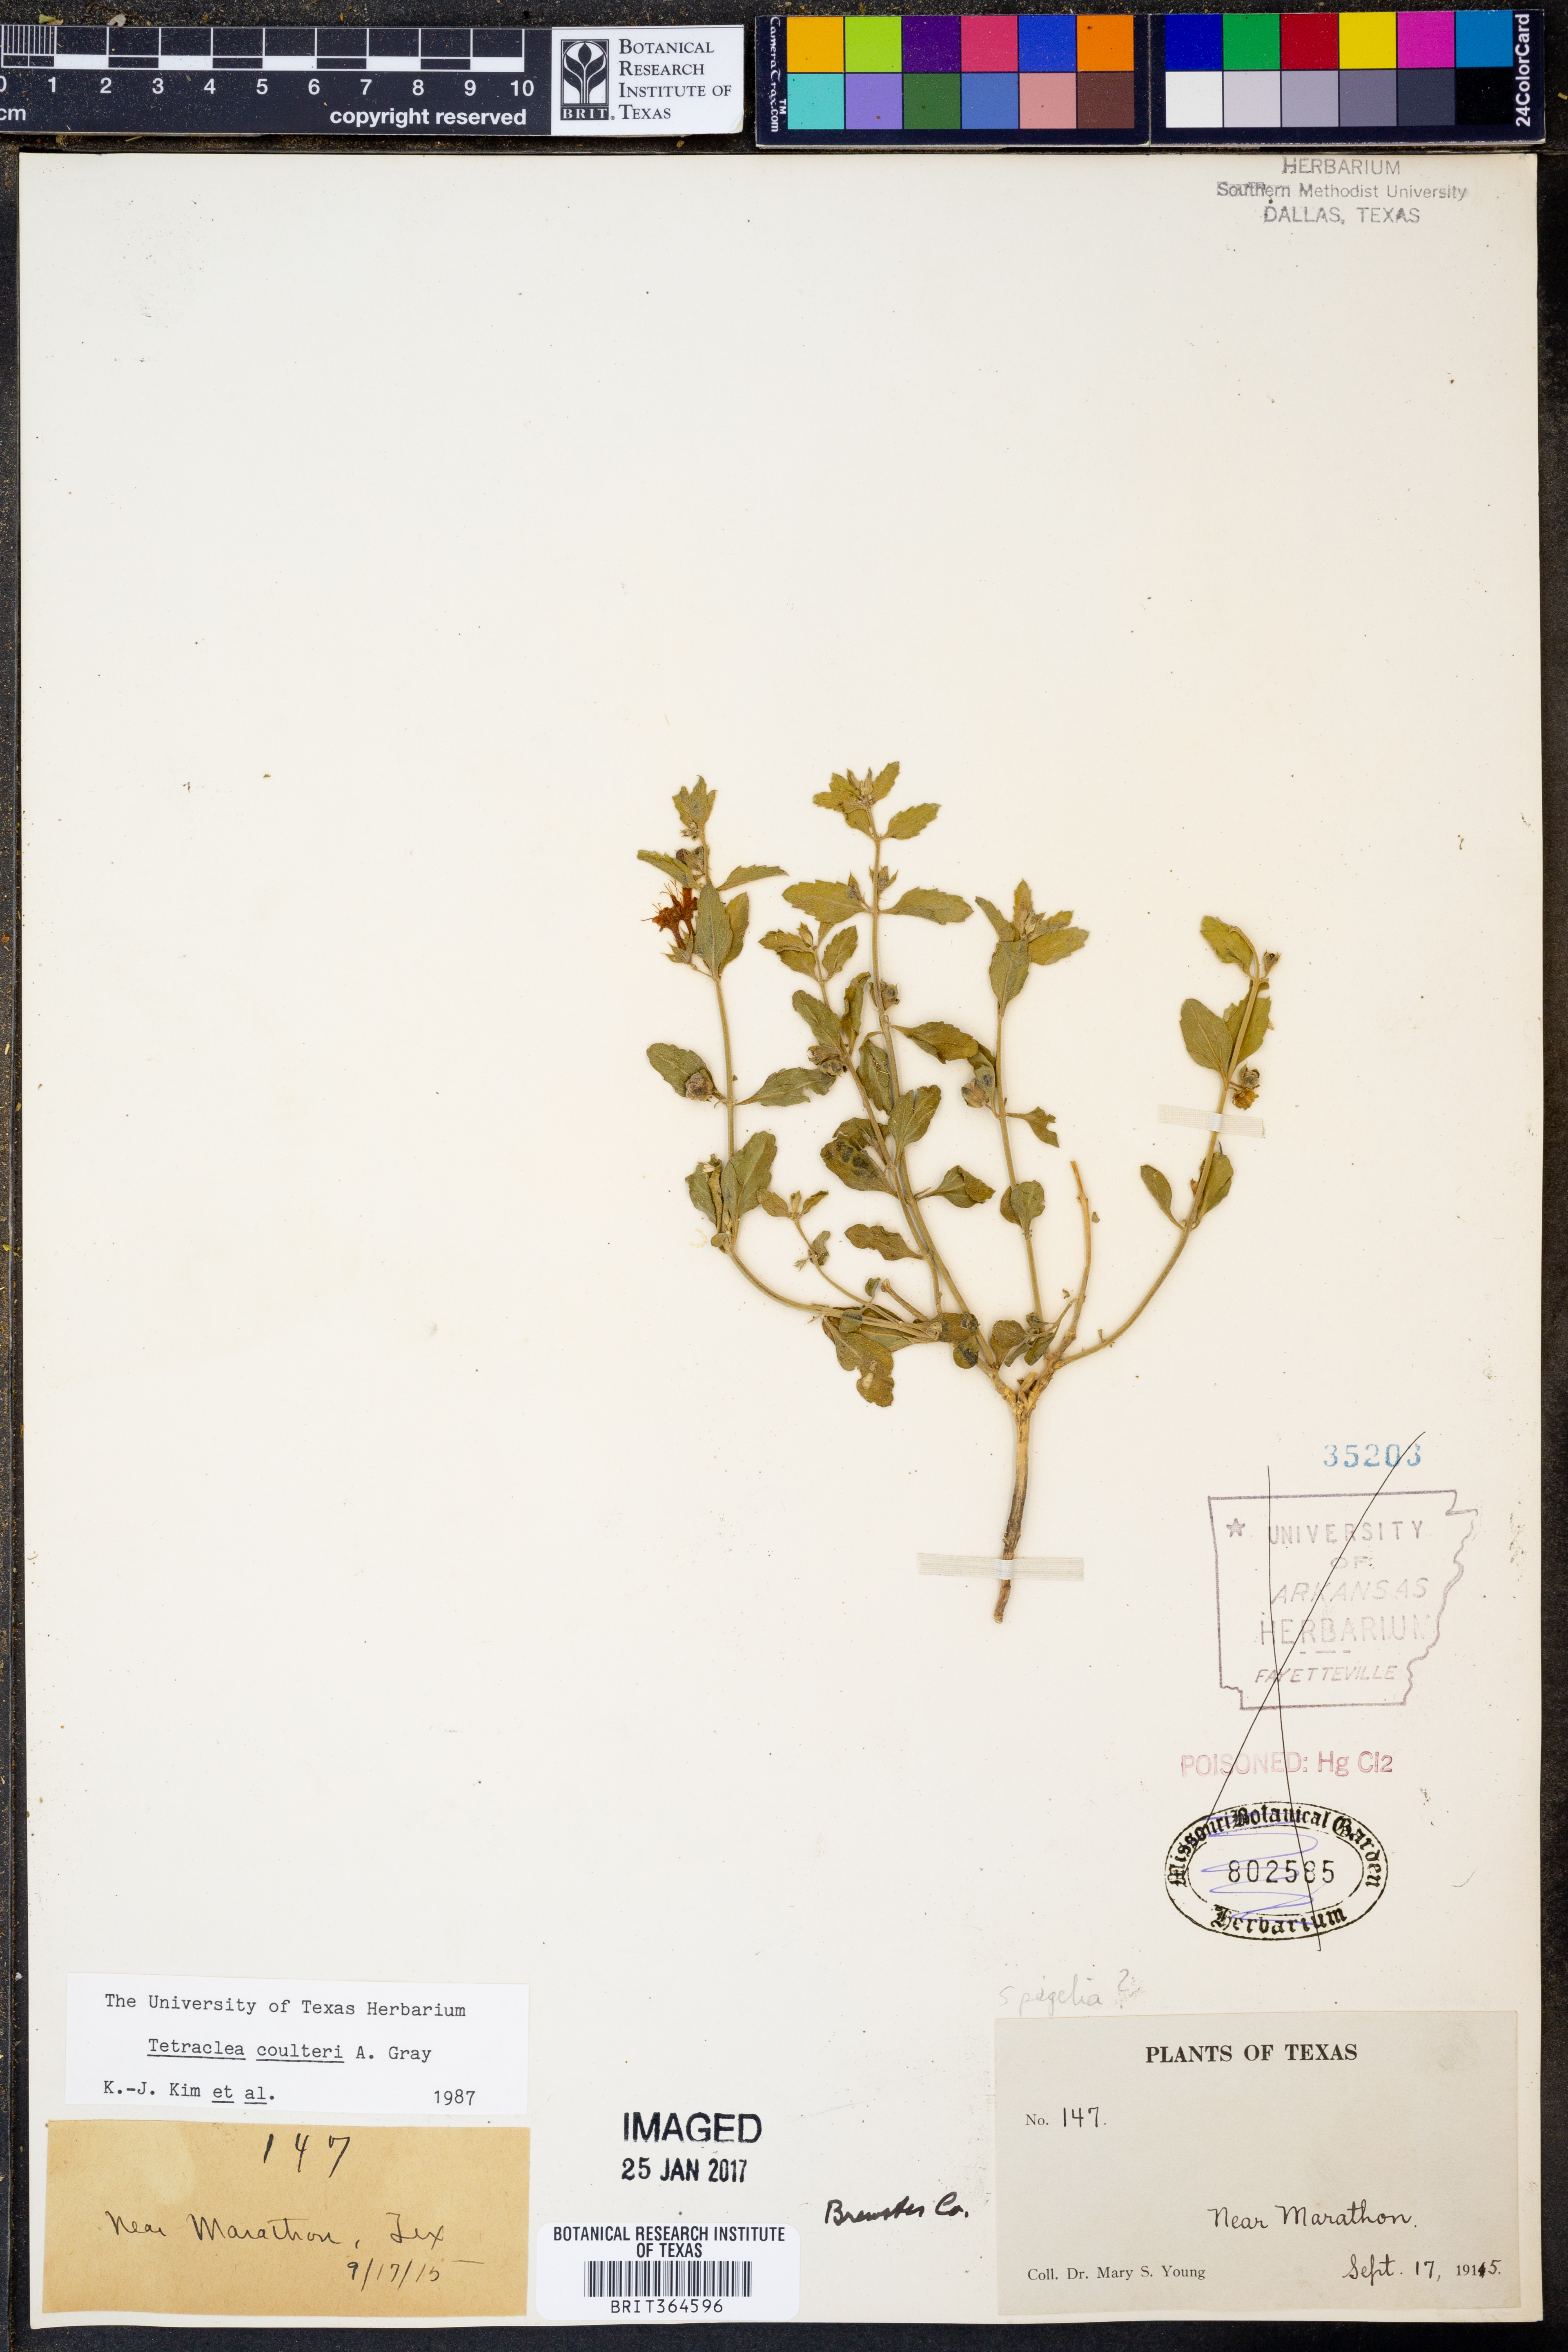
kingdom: Plantae
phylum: Tracheophyta
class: Magnoliopsida
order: Lamiales
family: Lamiaceae
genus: Tetraclea
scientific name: Tetraclea coulteri
